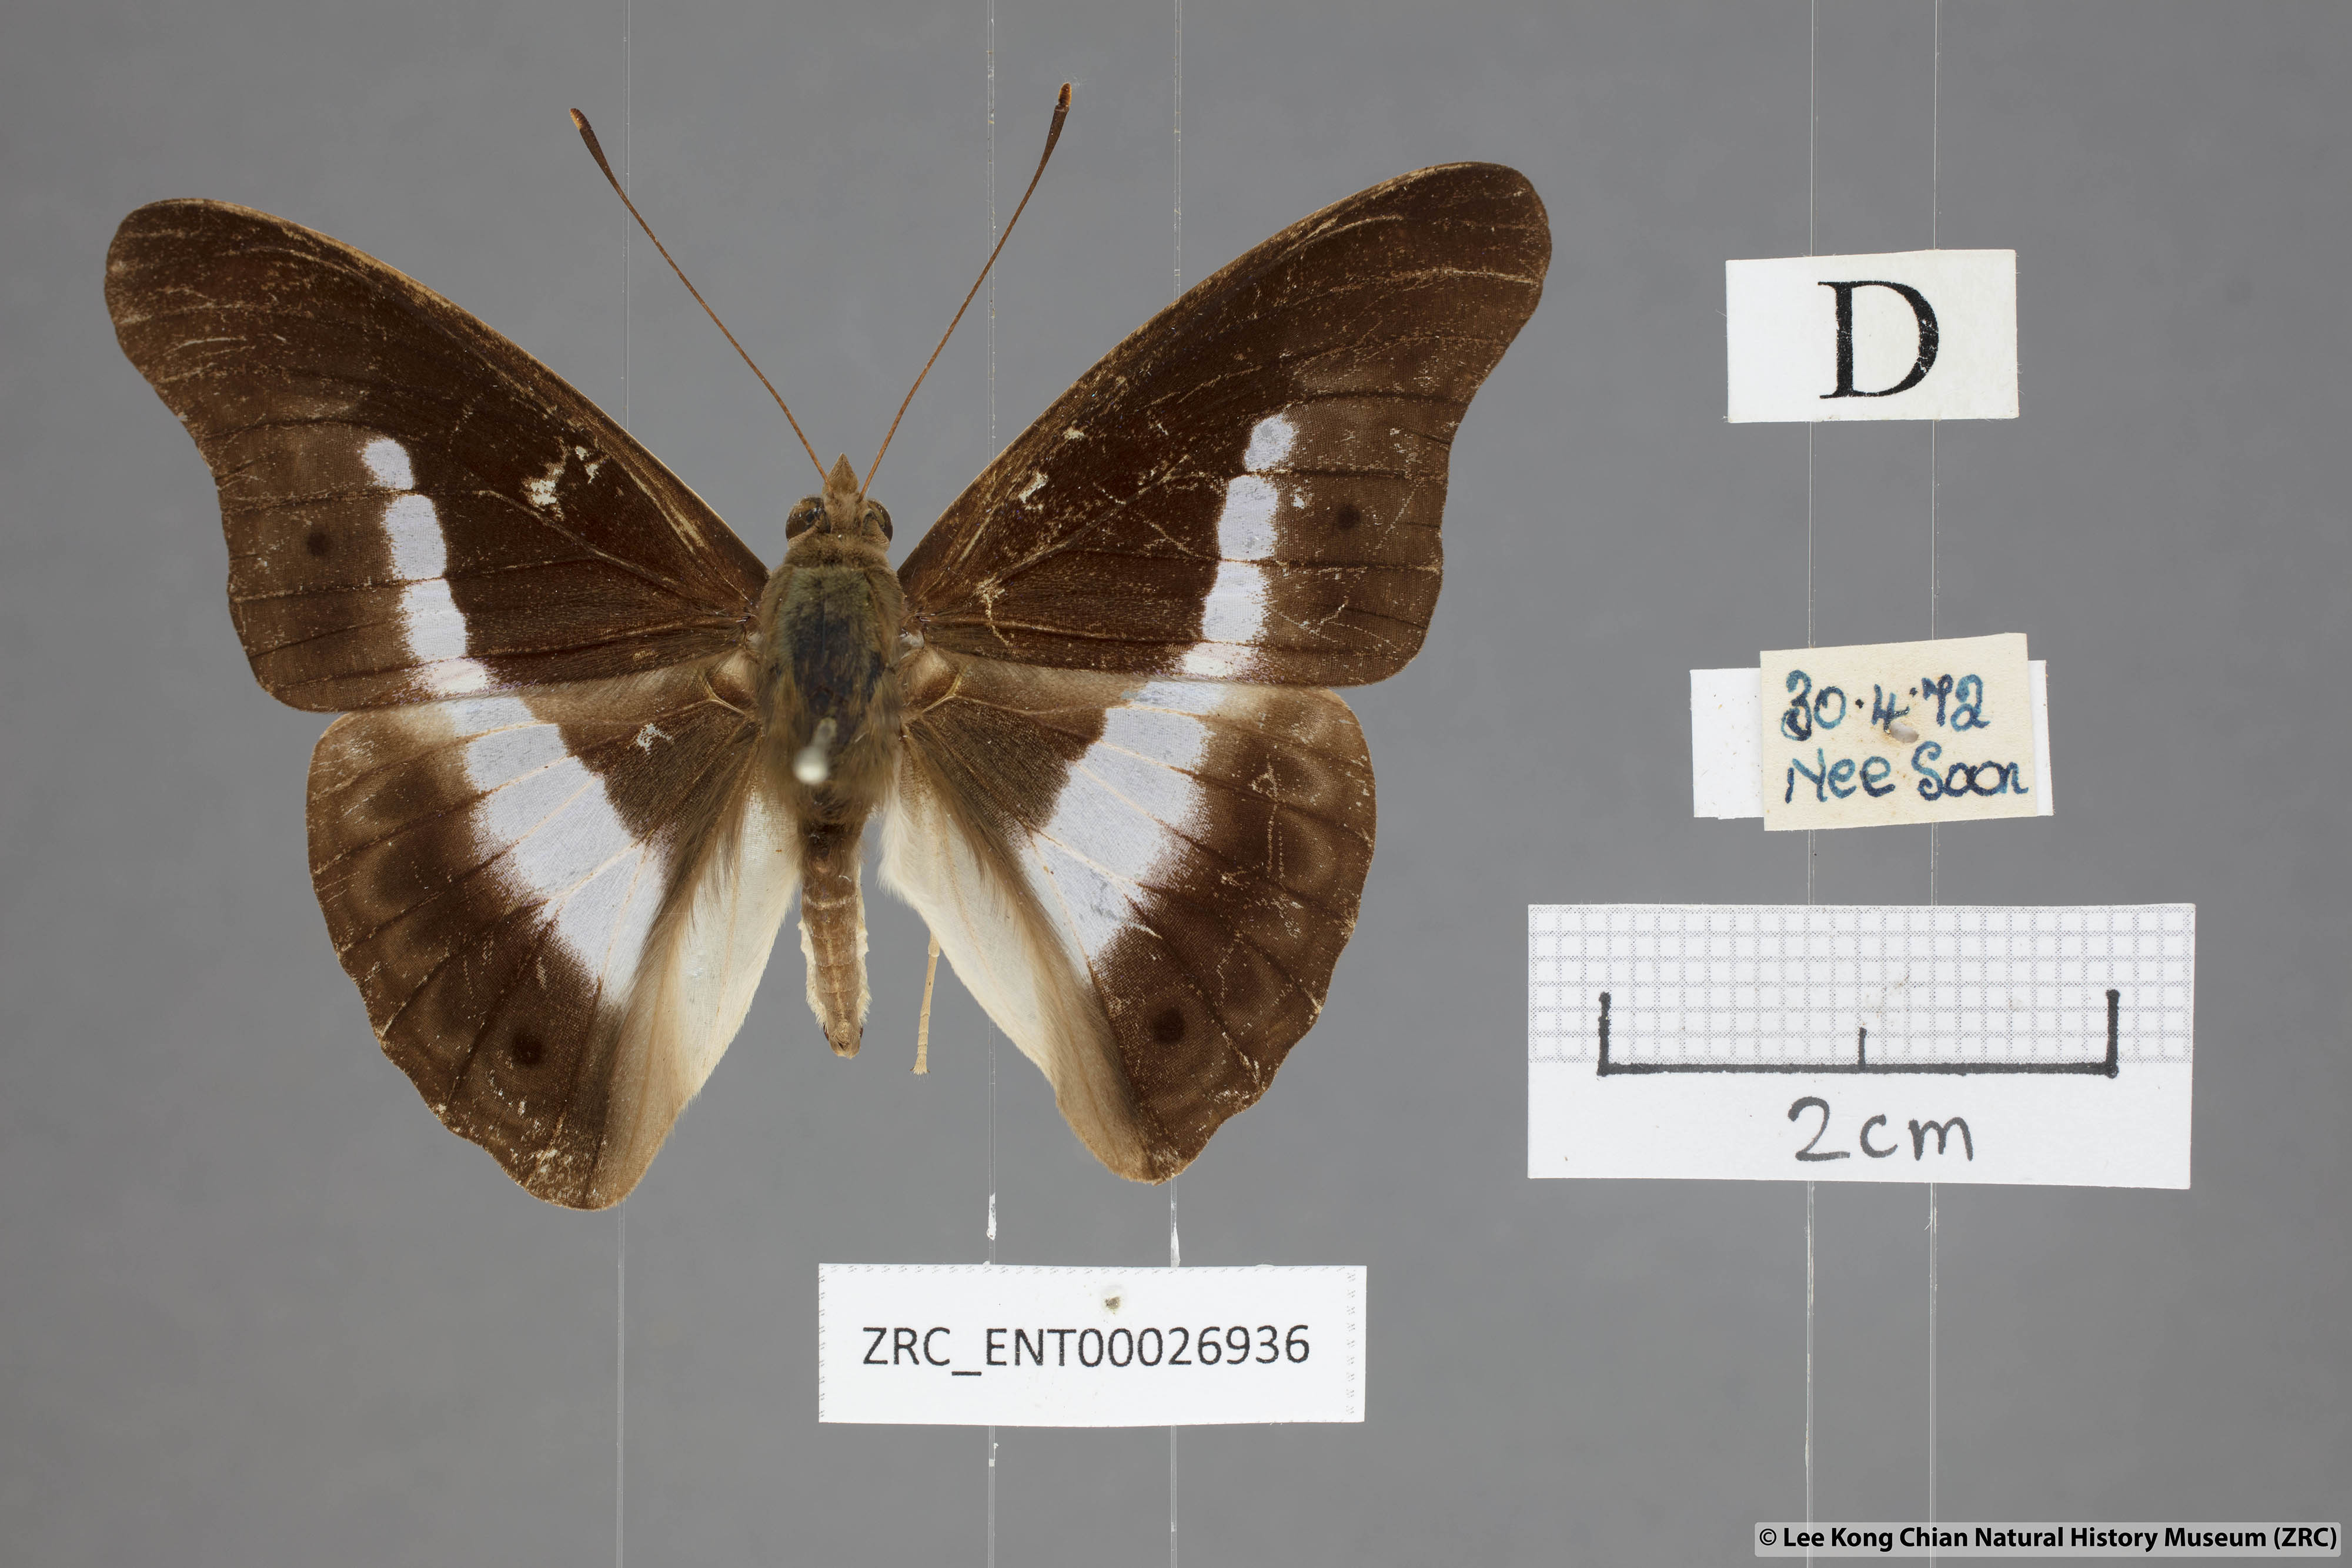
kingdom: Animalia
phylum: Arthropoda
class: Insecta
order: Lepidoptera
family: Nymphalidae
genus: Eulaceura
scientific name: Eulaceura osteria
